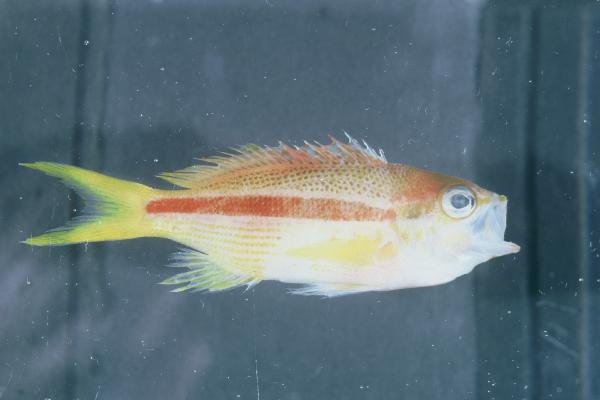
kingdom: Animalia
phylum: Chordata
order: Perciformes
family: Serranidae
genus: Pseudanthias
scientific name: Pseudanthias gibbosus
